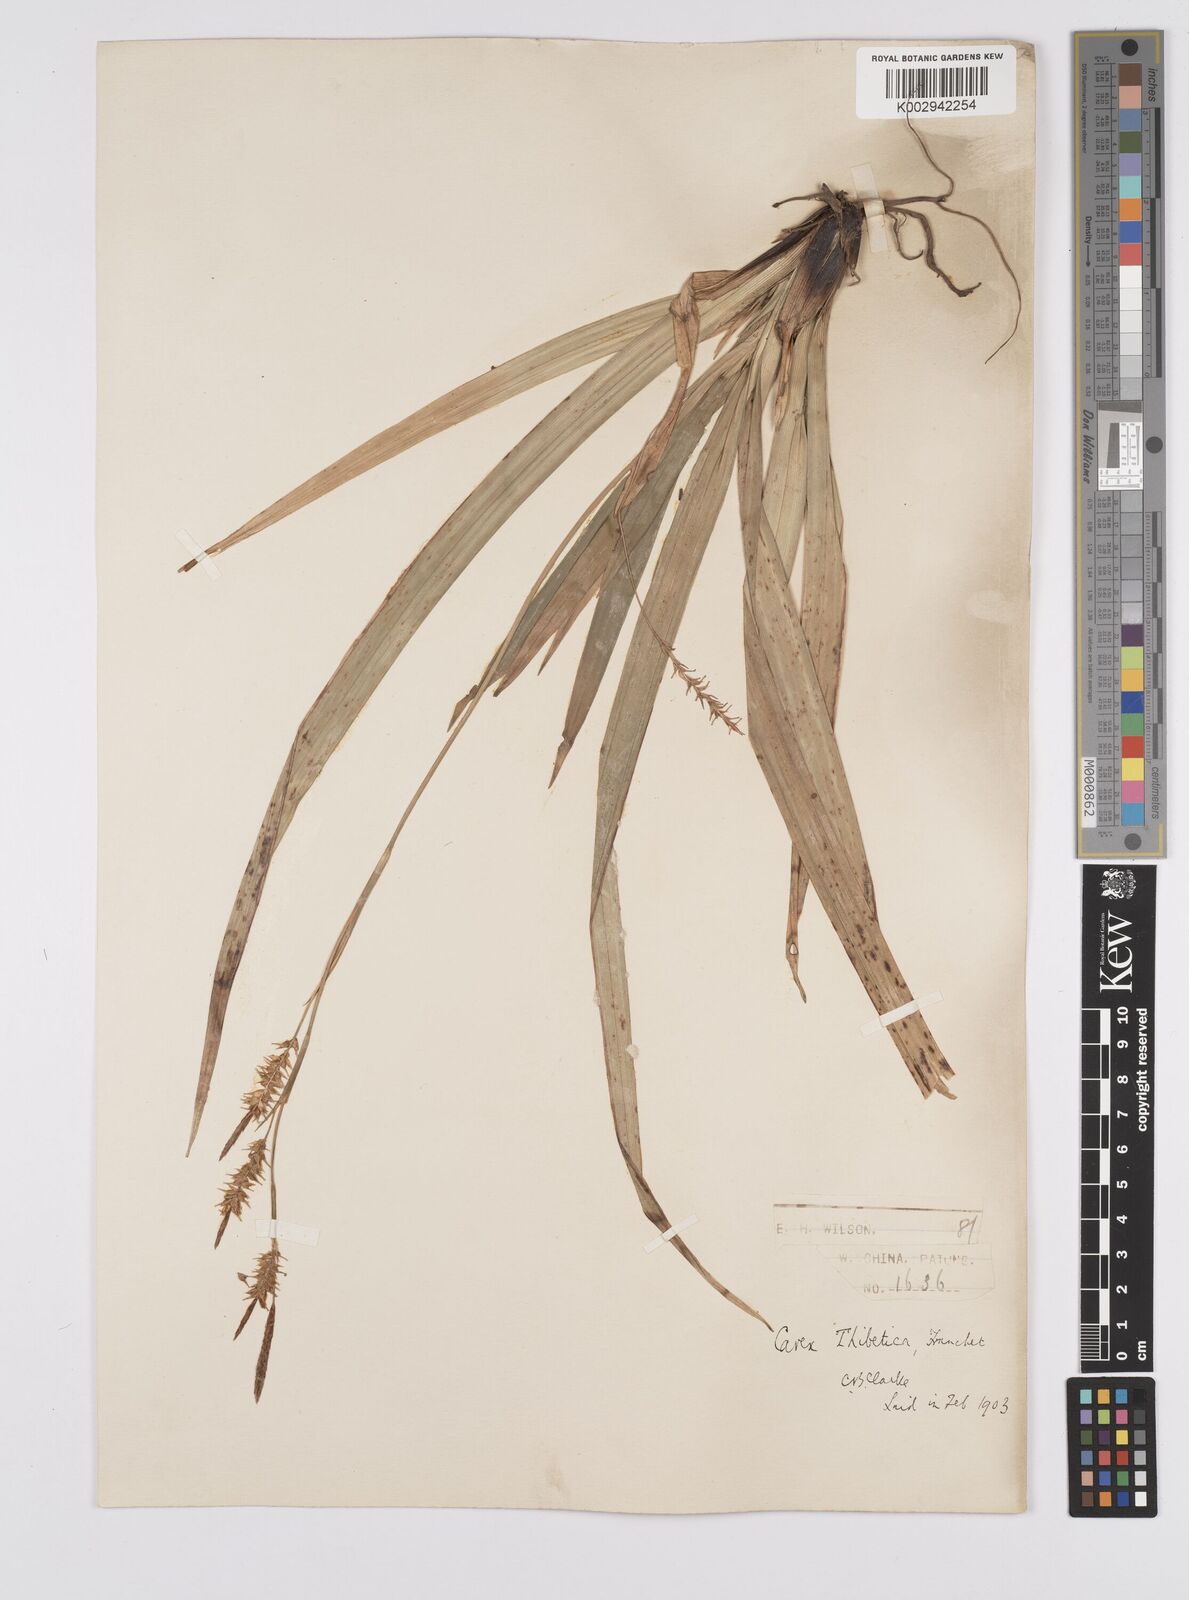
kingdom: Plantae
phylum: Tracheophyta
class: Liliopsida
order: Poales
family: Cyperaceae
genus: Carex
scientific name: Carex thibetica
